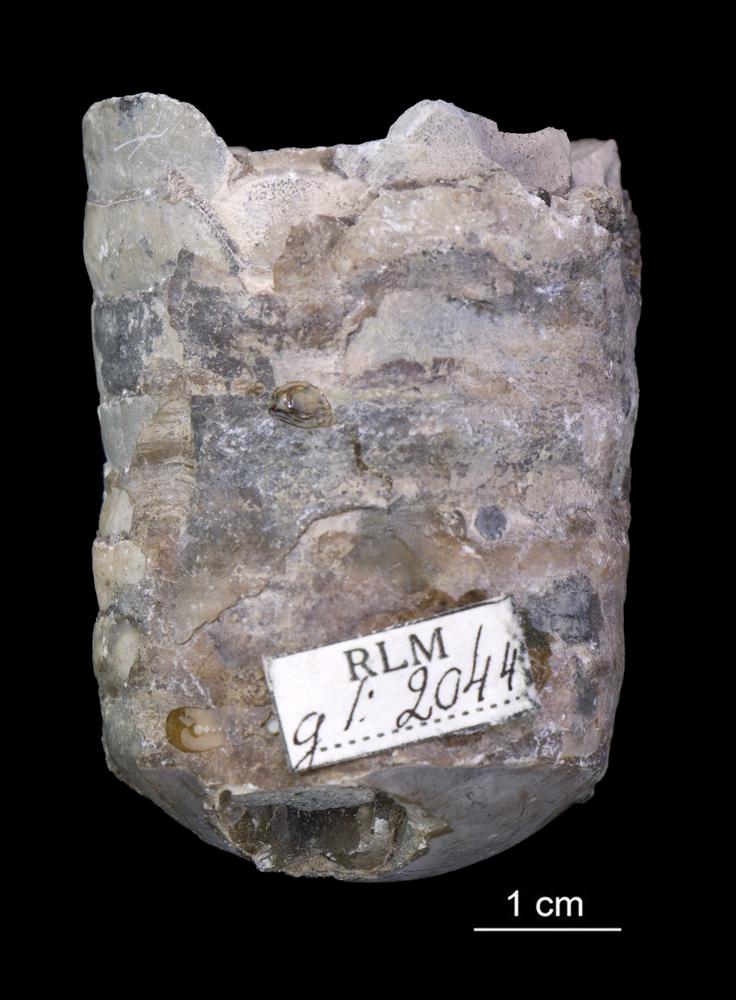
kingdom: Animalia
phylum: Mollusca
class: Cephalopoda
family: Estonioceratidae
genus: Estonioceras
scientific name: Estonioceras
